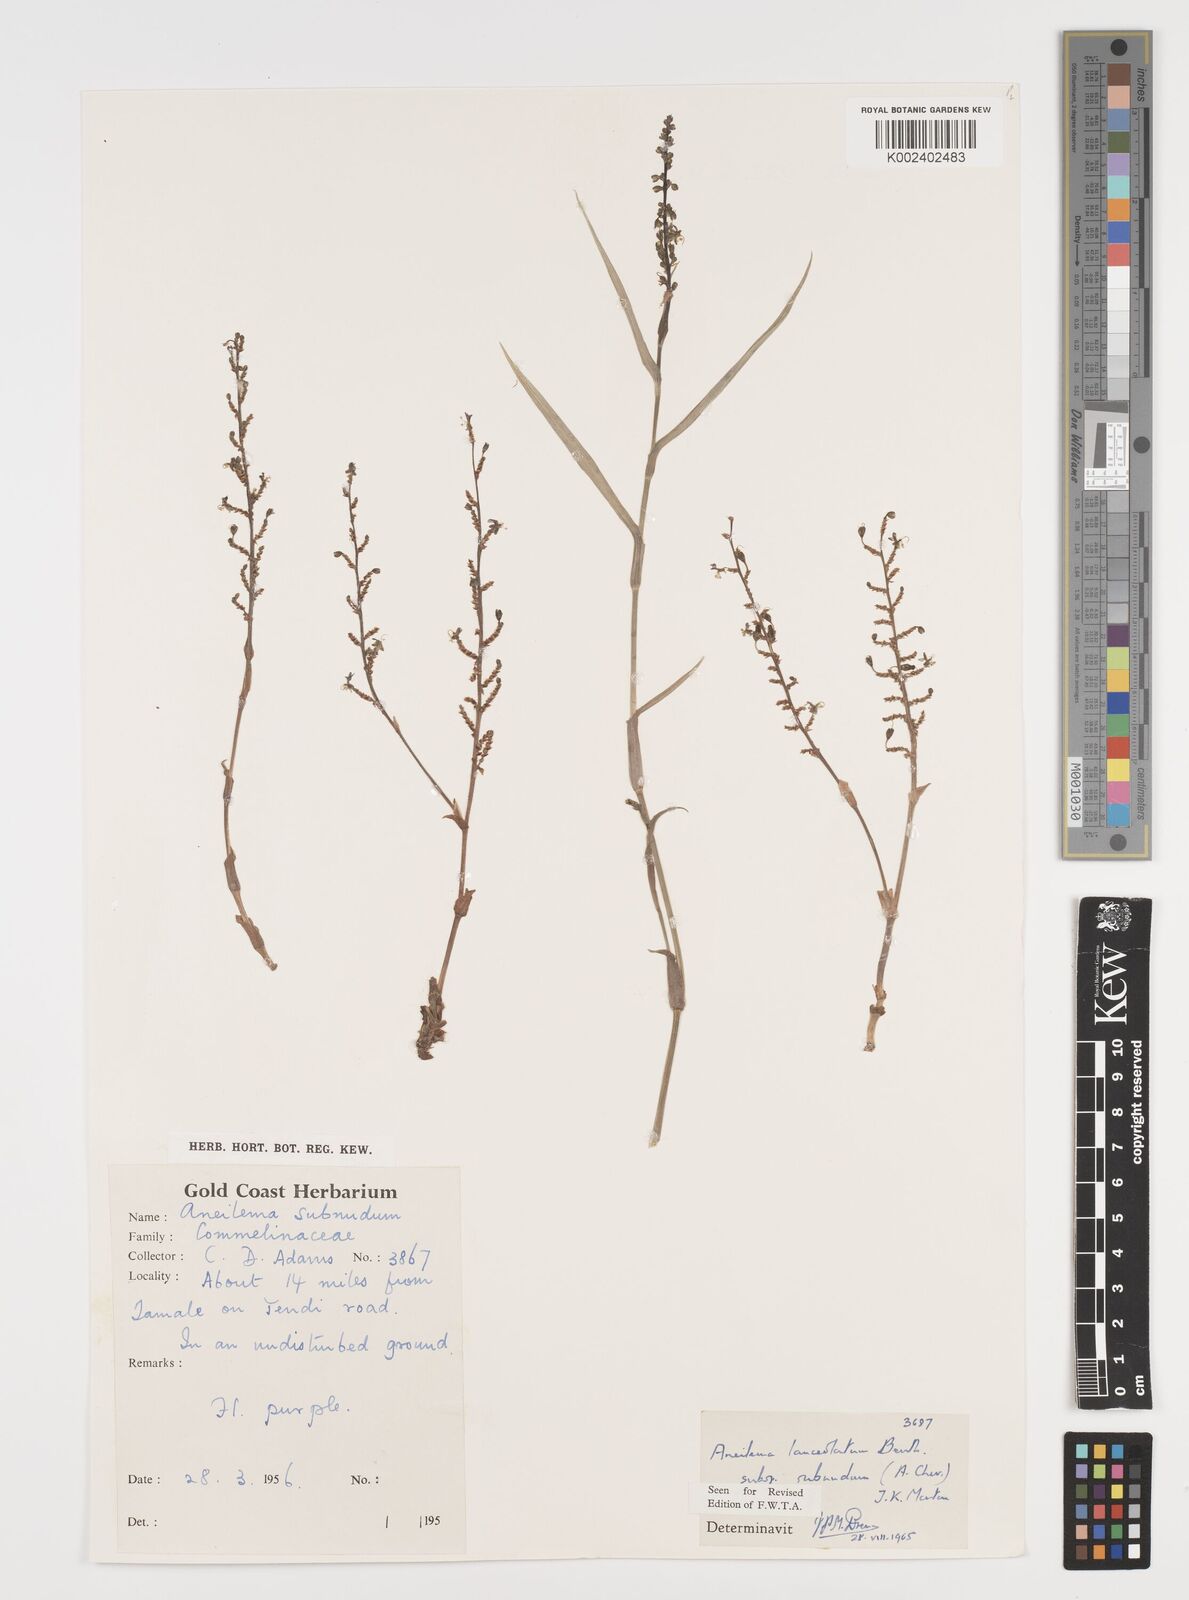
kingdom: Plantae
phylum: Tracheophyta
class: Liliopsida
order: Commelinales
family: Commelinaceae
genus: Aneilema
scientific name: Aneilema lanceolatum
